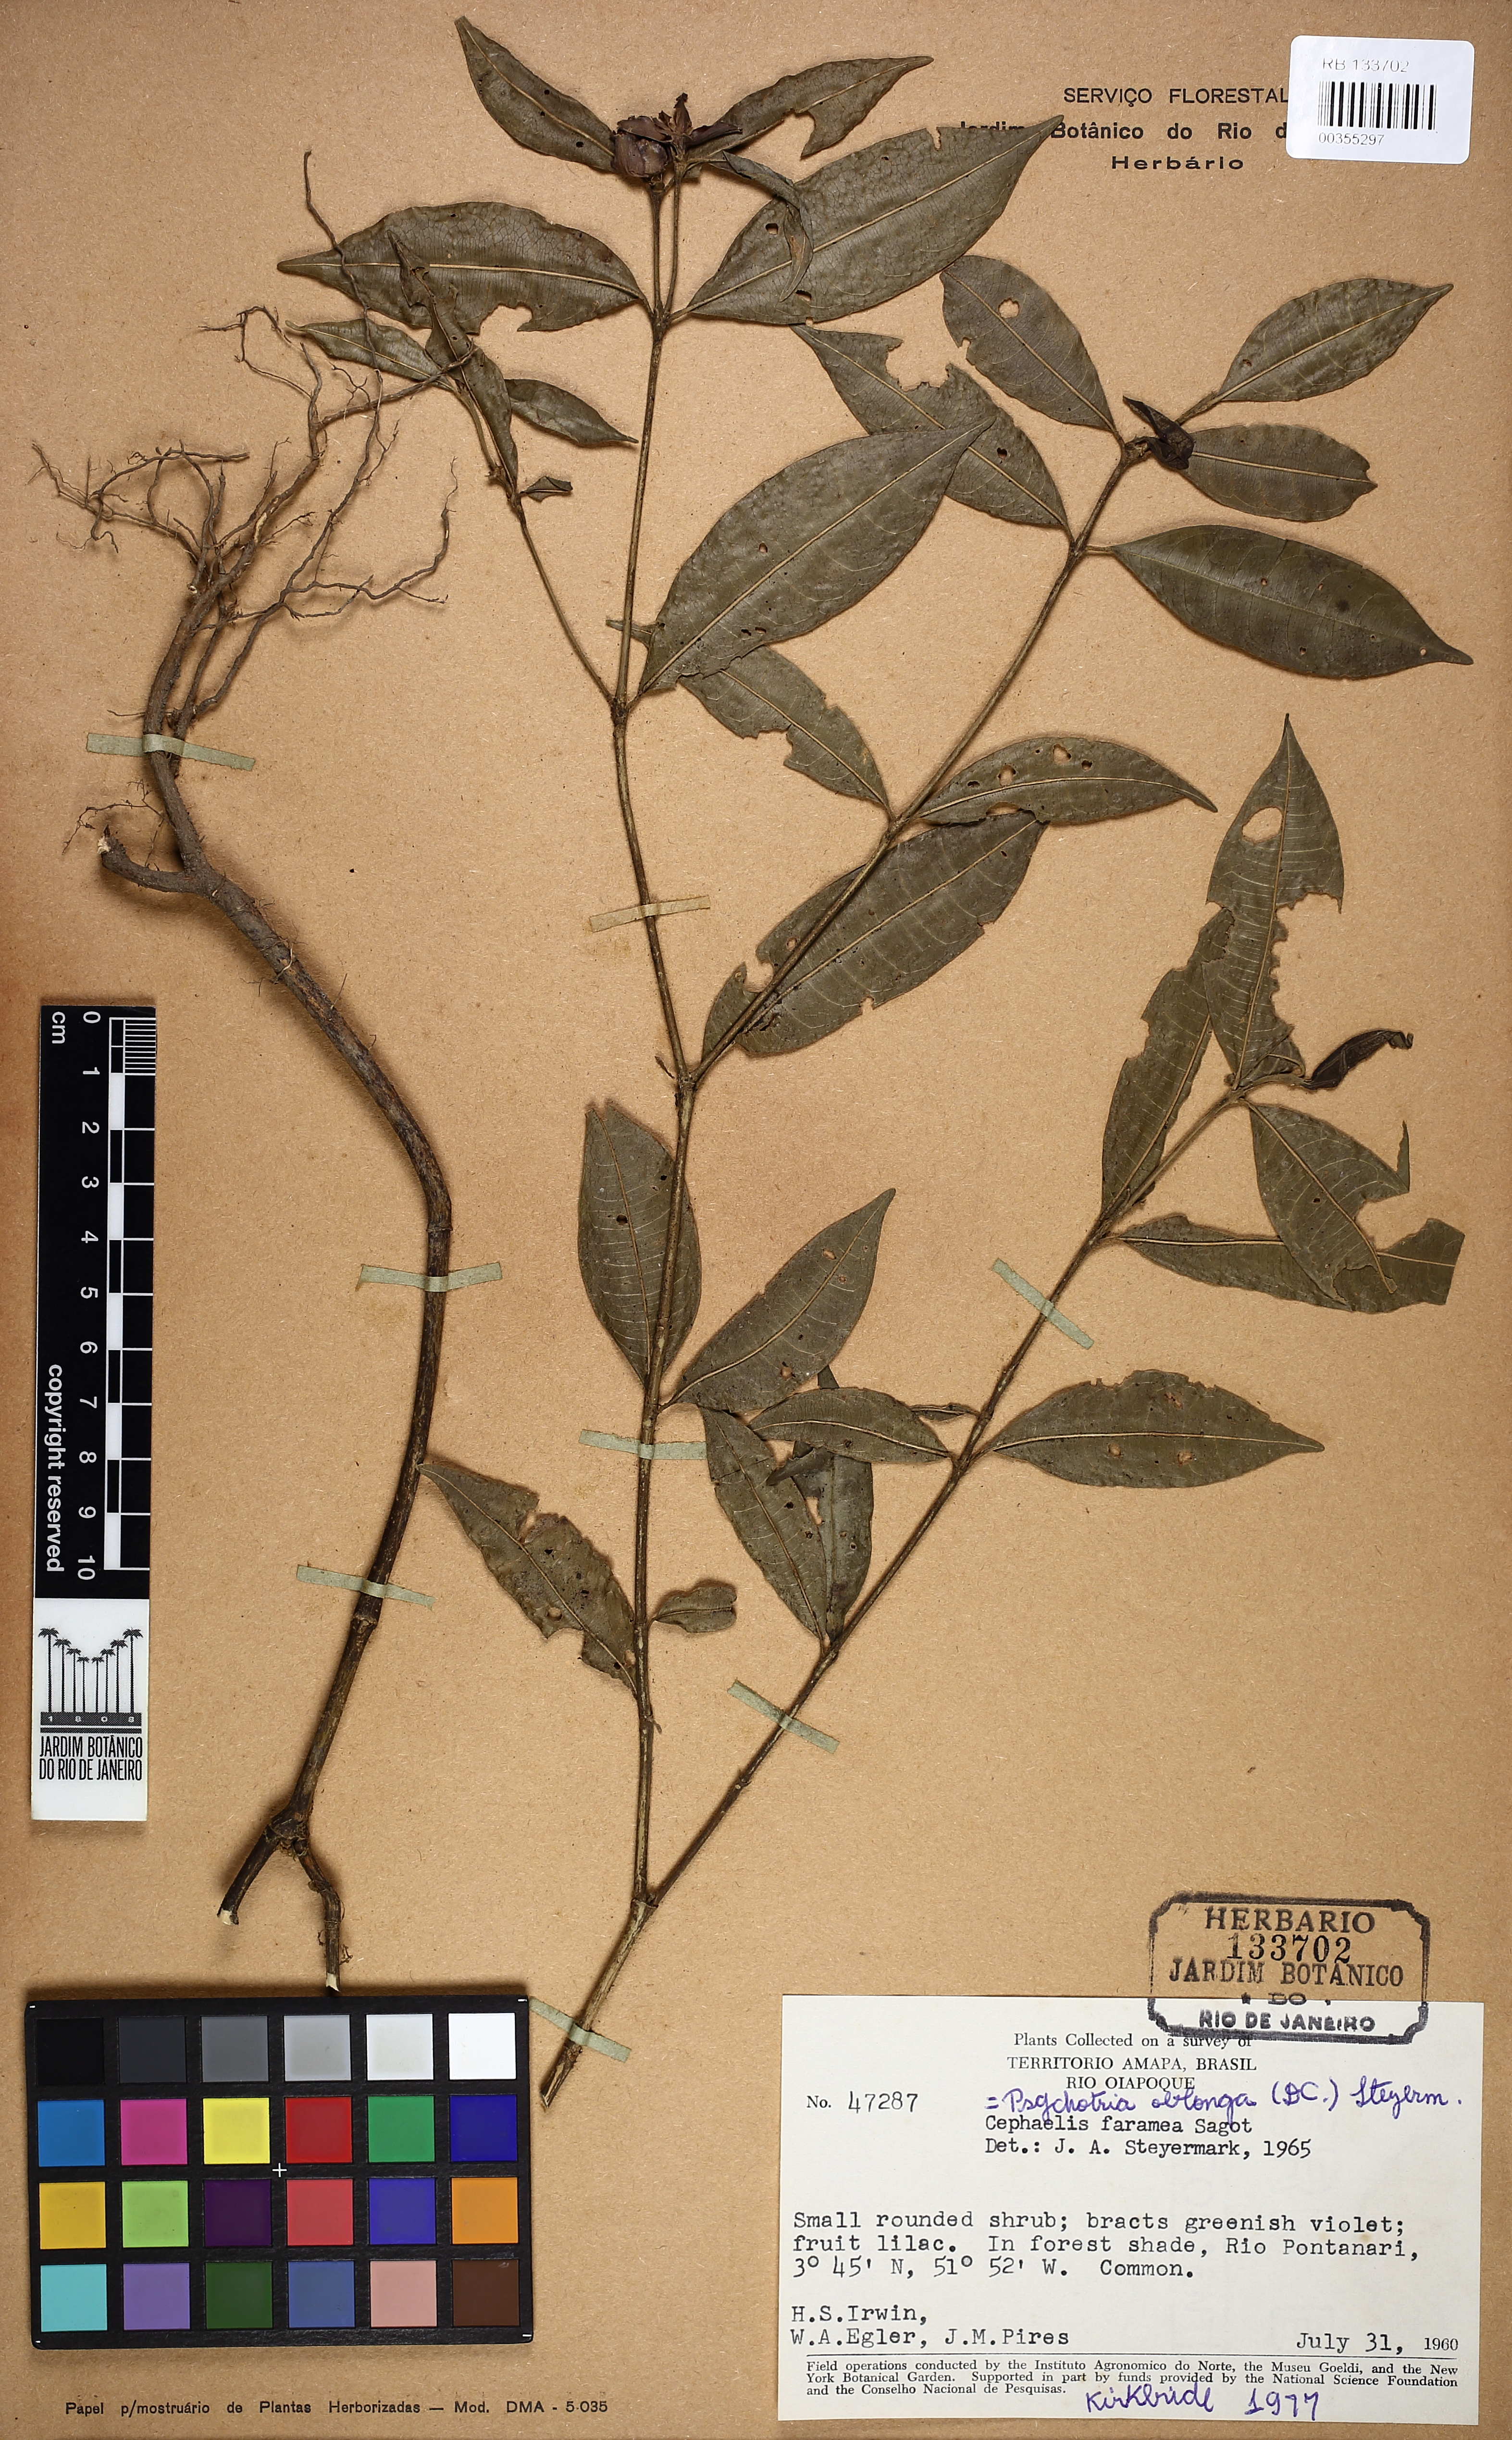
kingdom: Plantae
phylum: Tracheophyta
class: Magnoliopsida
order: Gentianales
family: Rubiaceae
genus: Palicourea
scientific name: Palicourea oblonga
